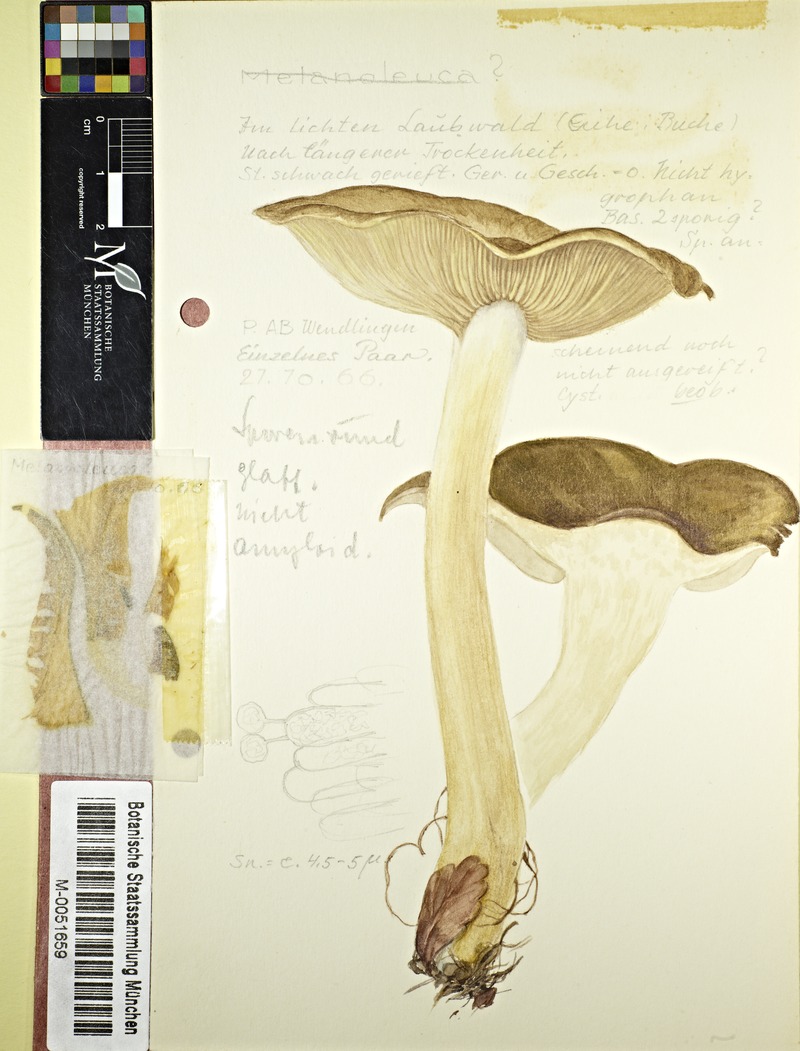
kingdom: Fungi
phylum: Basidiomycota
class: Agaricomycetes
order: Agaricales
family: Tricholomataceae
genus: Melanoleuca
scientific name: Melanoleuca
